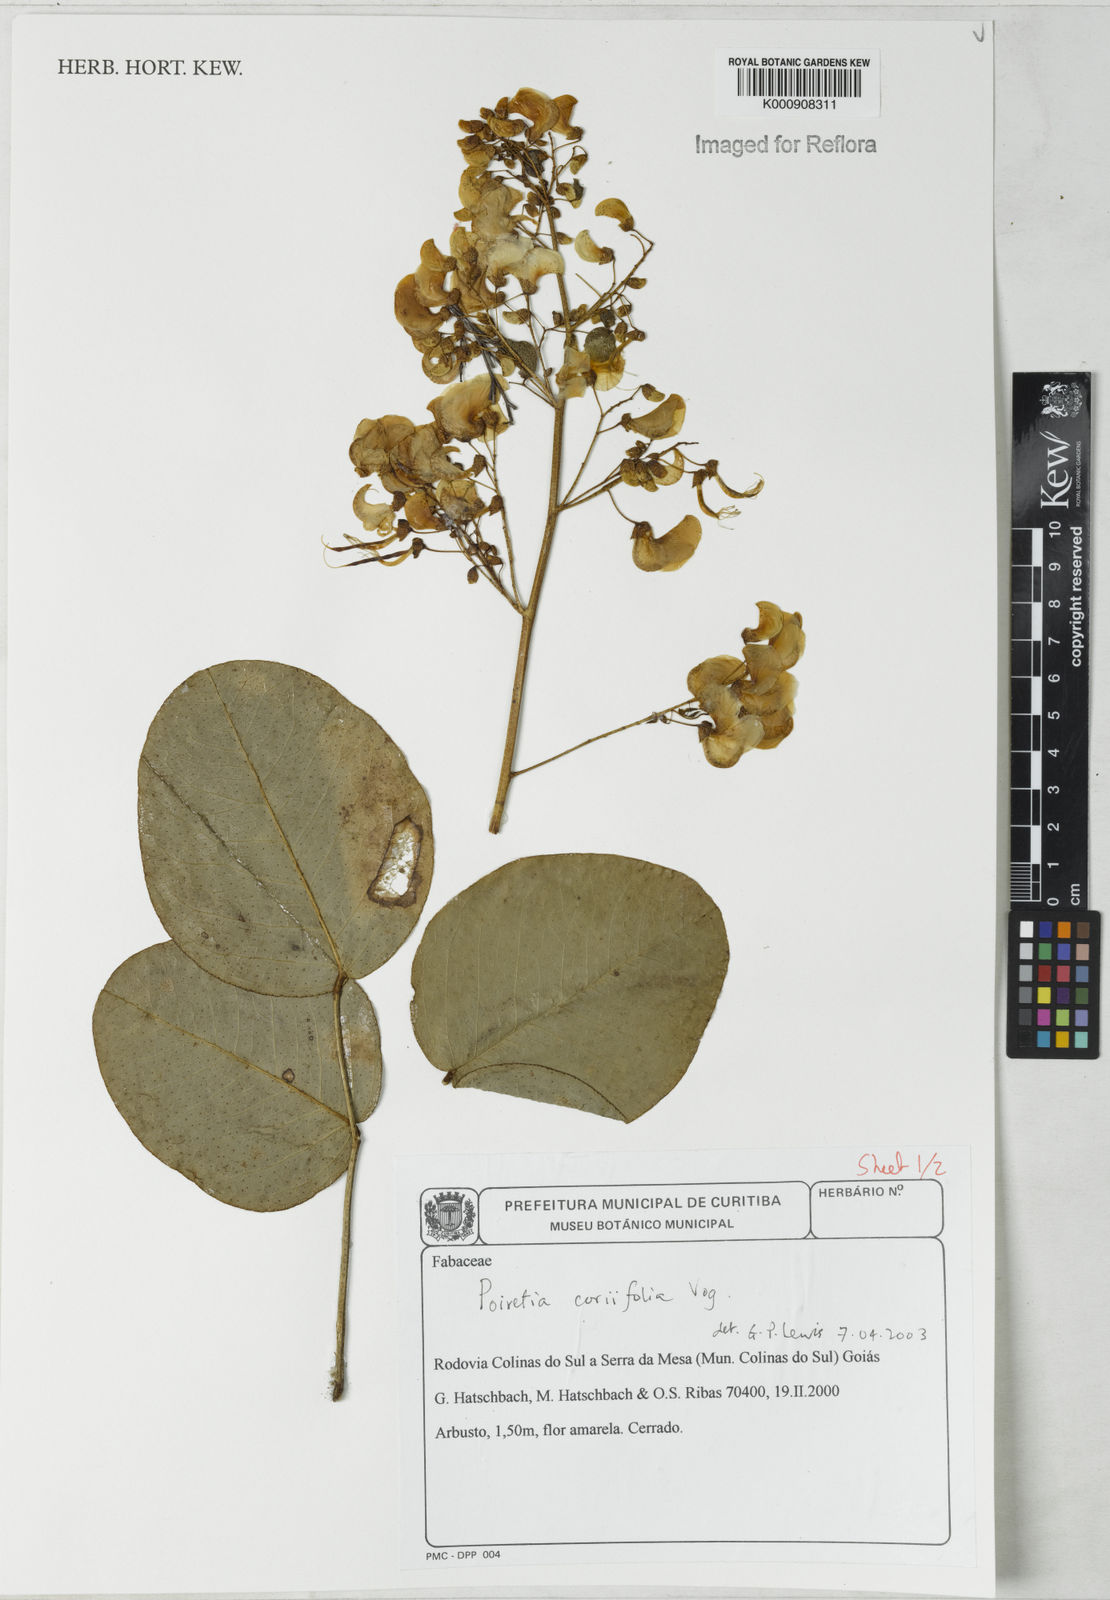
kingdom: Plantae
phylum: Tracheophyta
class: Magnoliopsida
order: Fabales
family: Fabaceae
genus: Poiretia
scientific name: Poiretia coriifolia
